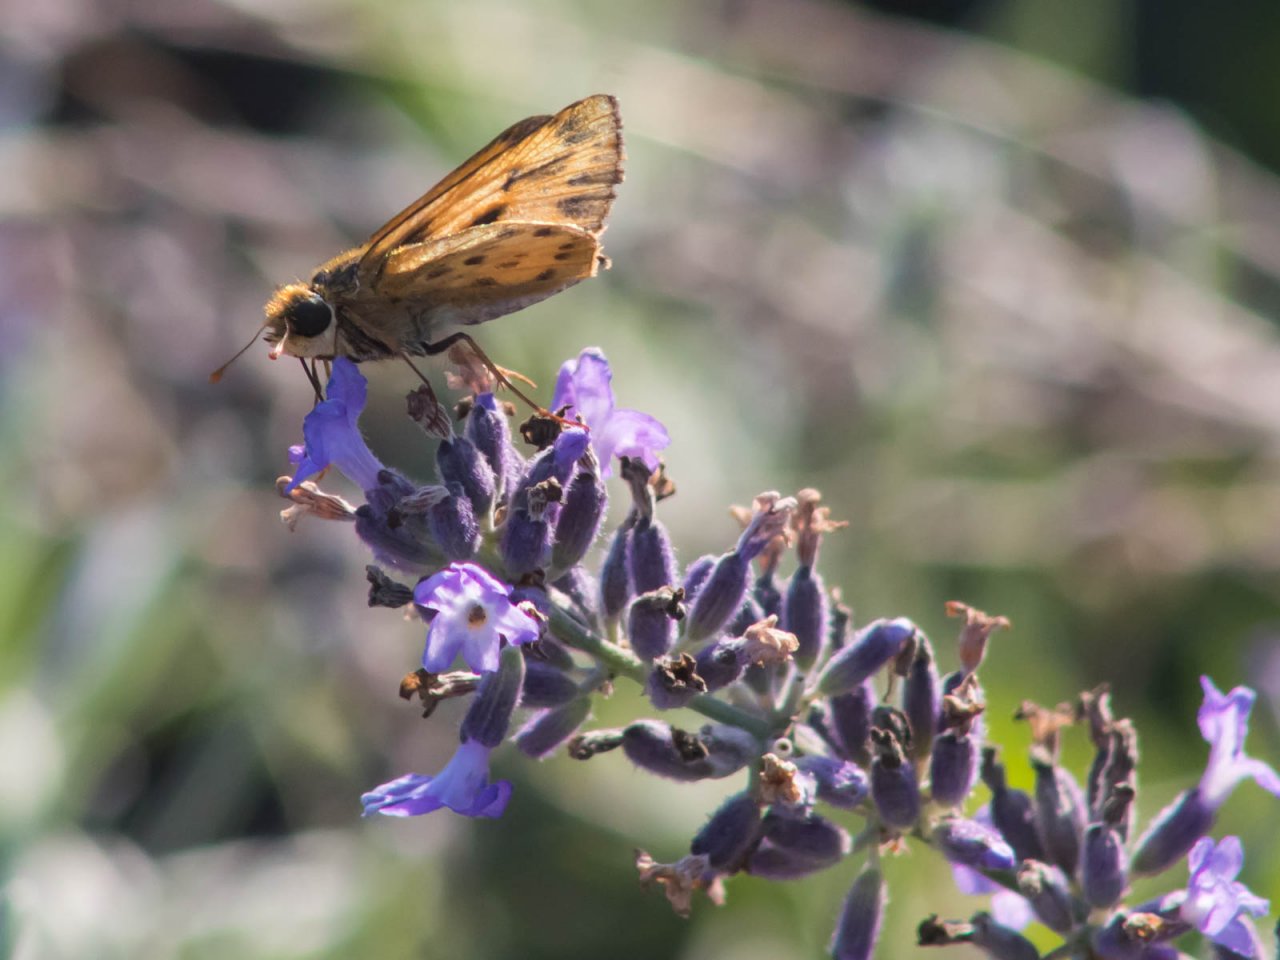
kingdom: Animalia
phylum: Arthropoda
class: Insecta
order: Lepidoptera
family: Hesperiidae
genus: Hylephila
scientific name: Hylephila phyleus
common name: Fiery Skipper
